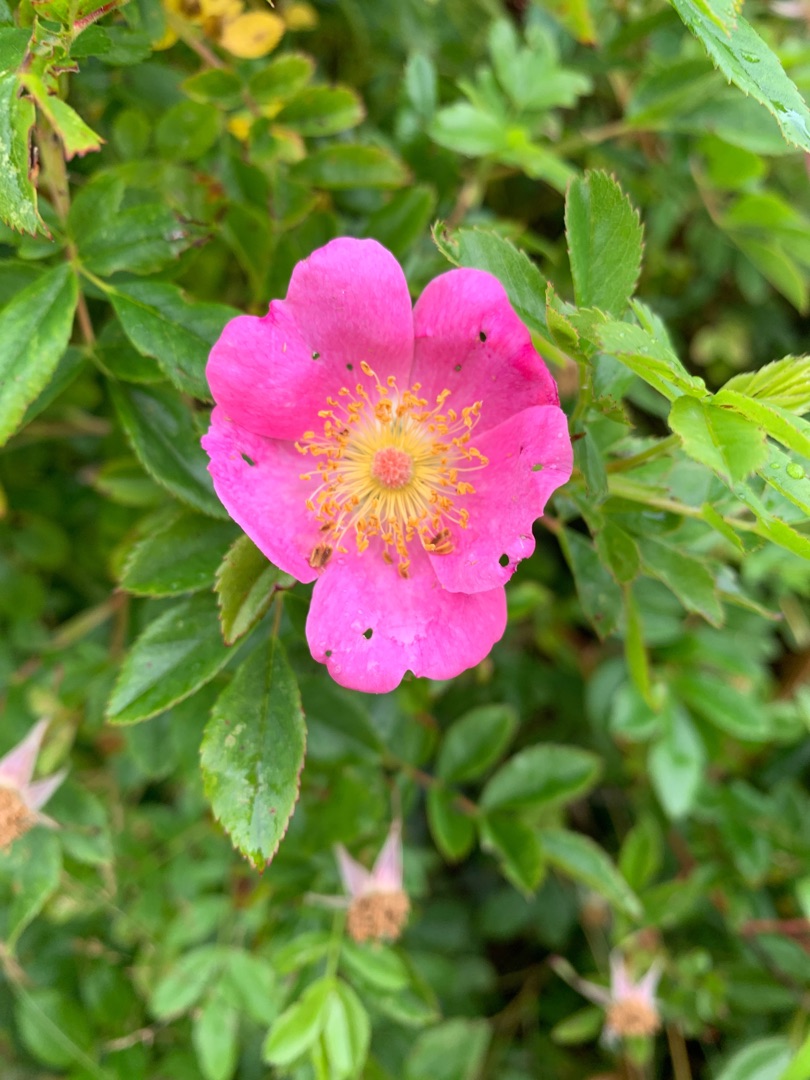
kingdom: Plantae
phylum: Tracheophyta
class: Magnoliopsida
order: Rosales
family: Rosaceae
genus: Rosa
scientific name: Rosa
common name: Roseslægten
